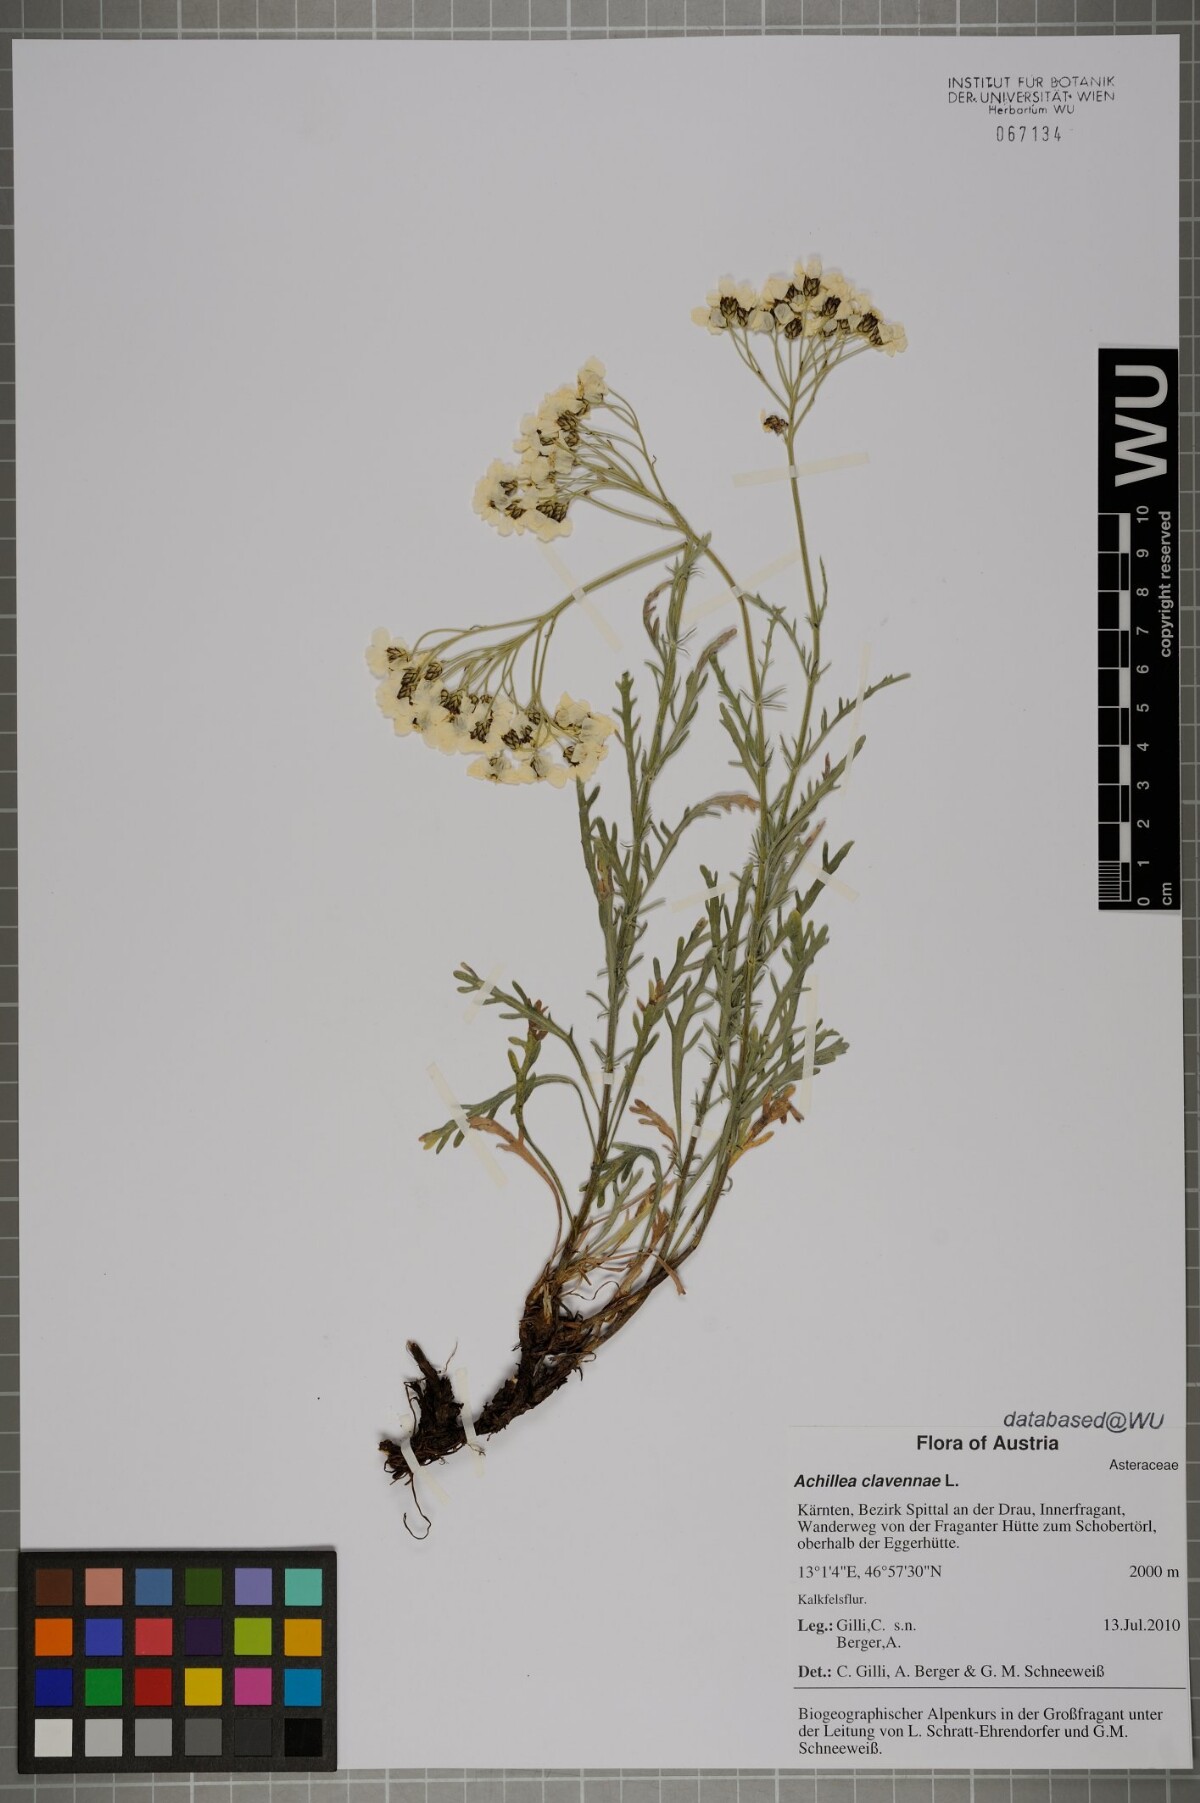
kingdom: Plantae
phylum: Tracheophyta
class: Magnoliopsida
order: Asterales
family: Asteraceae
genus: Achillea
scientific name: Achillea clavennae
